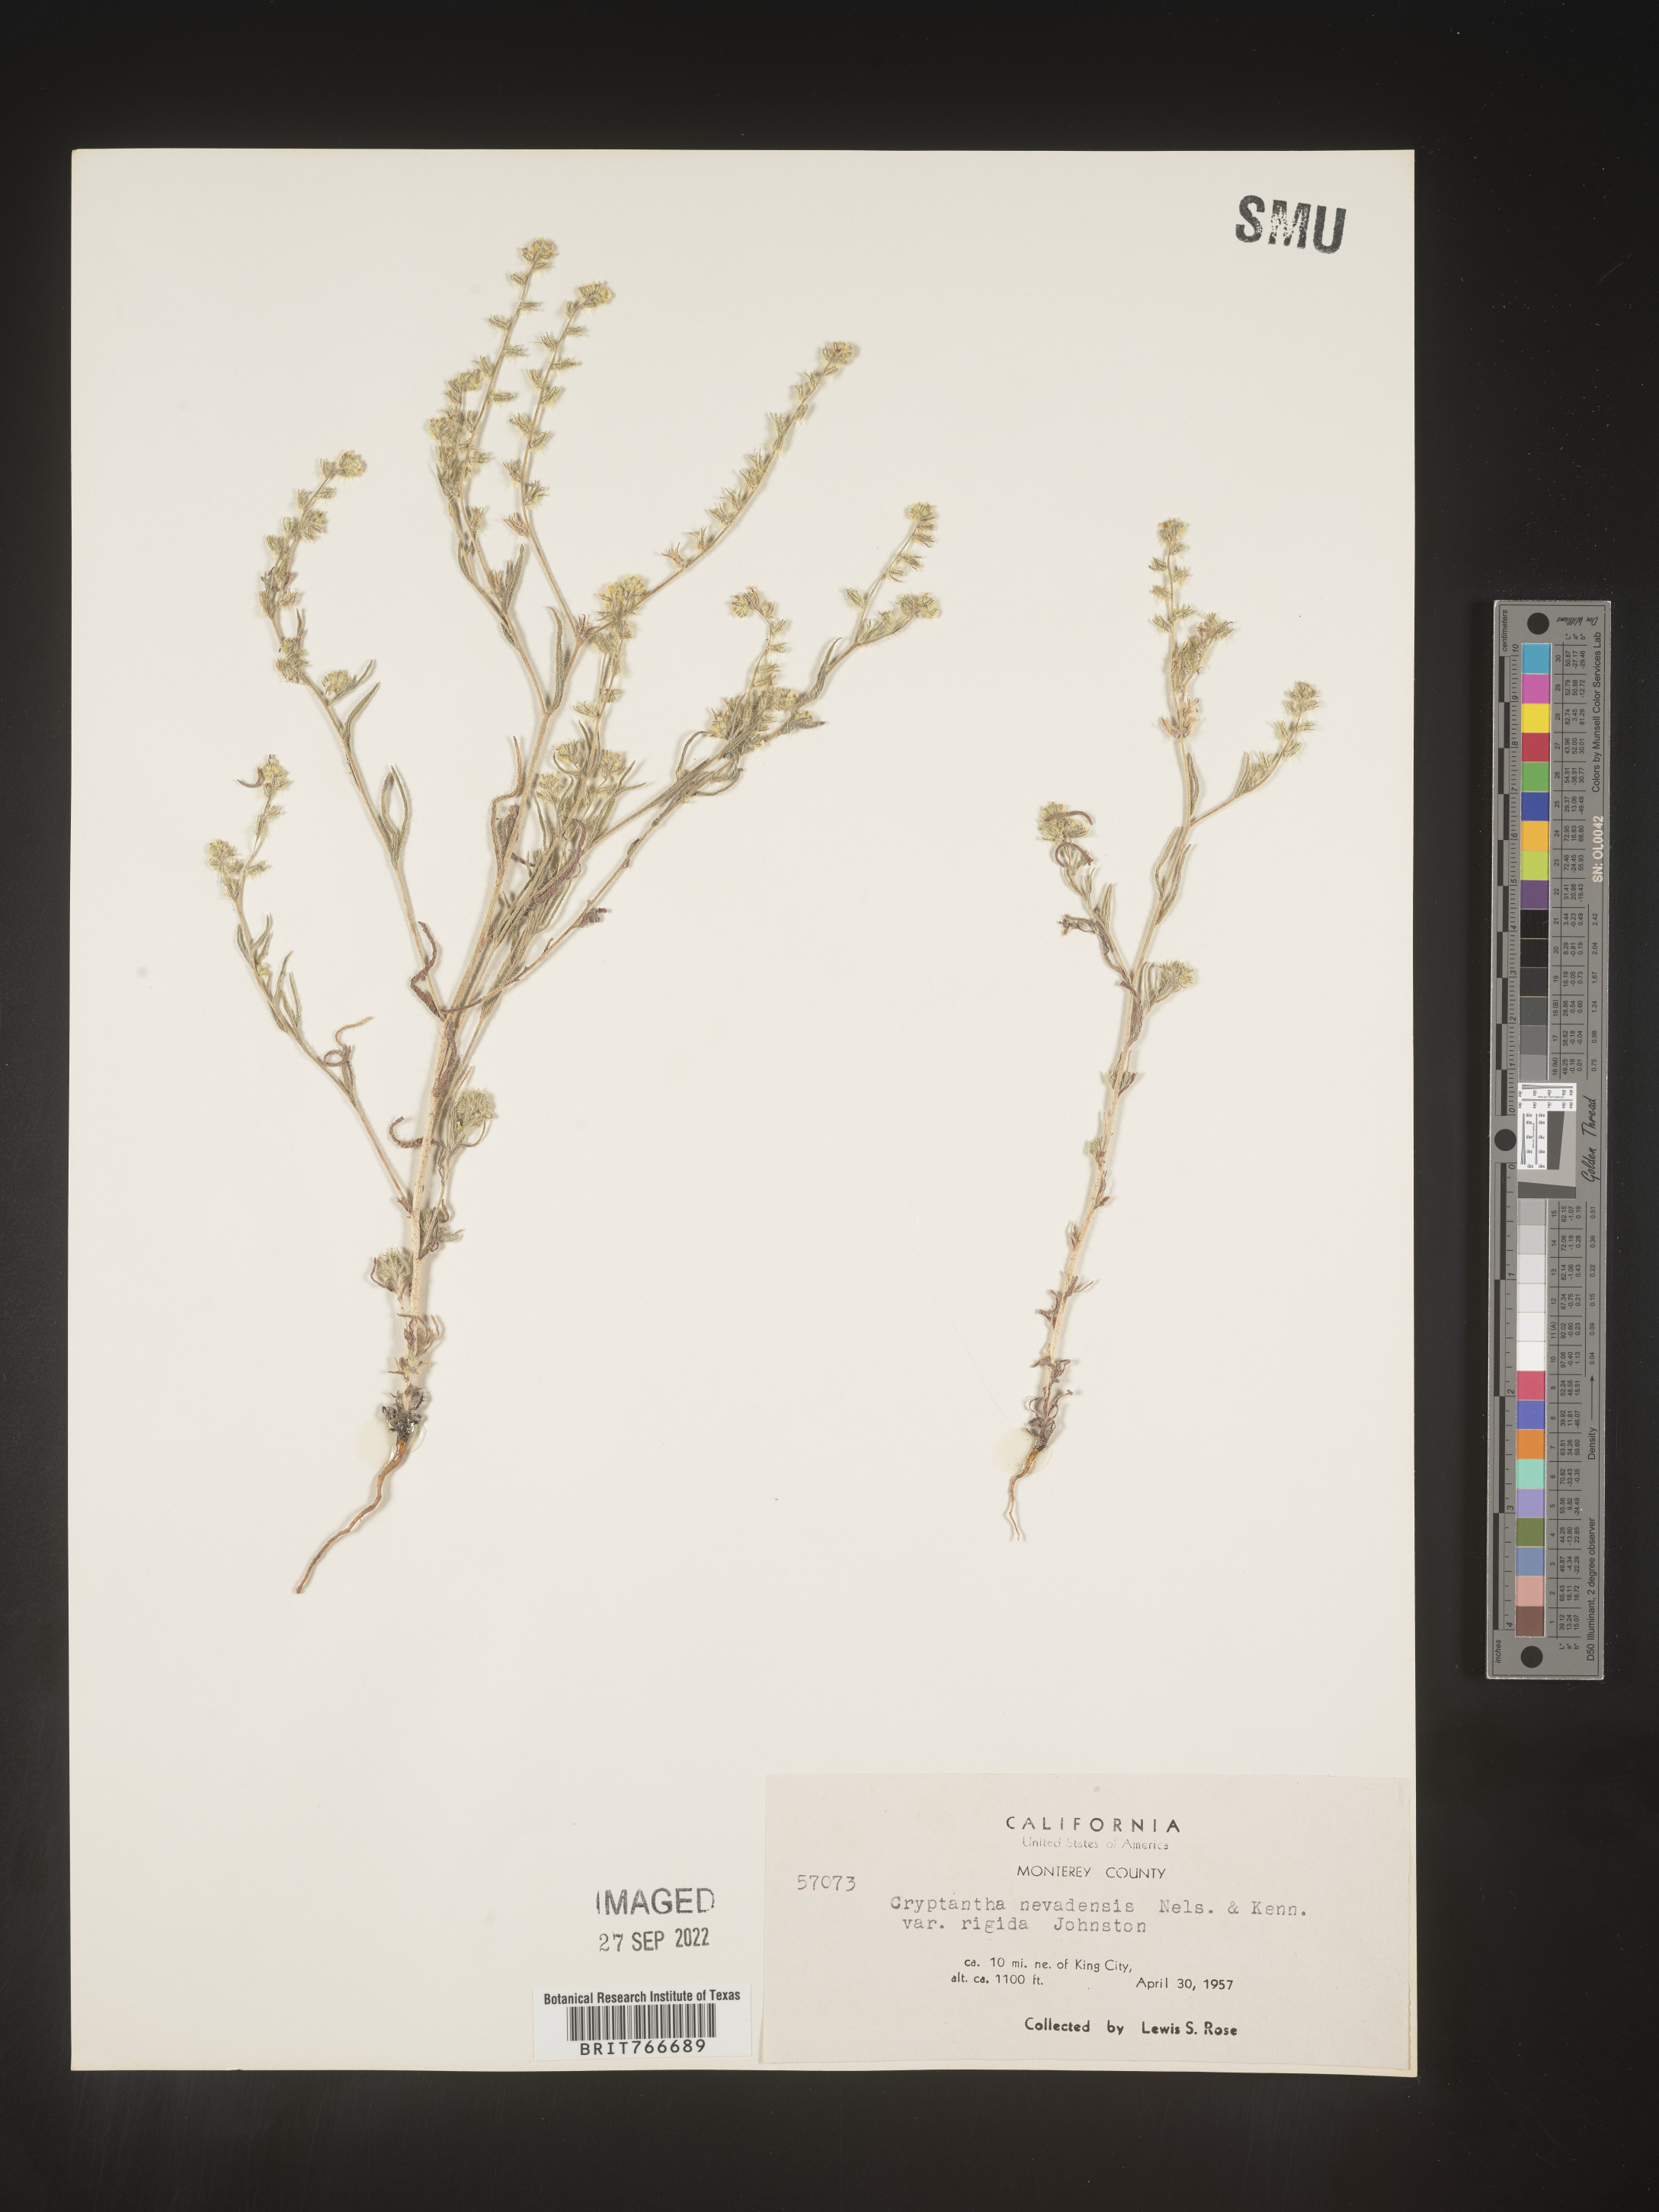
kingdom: Plantae
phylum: Tracheophyta
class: Magnoliopsida
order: Boraginales
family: Boraginaceae
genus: Cryptantha
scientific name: Cryptantha
